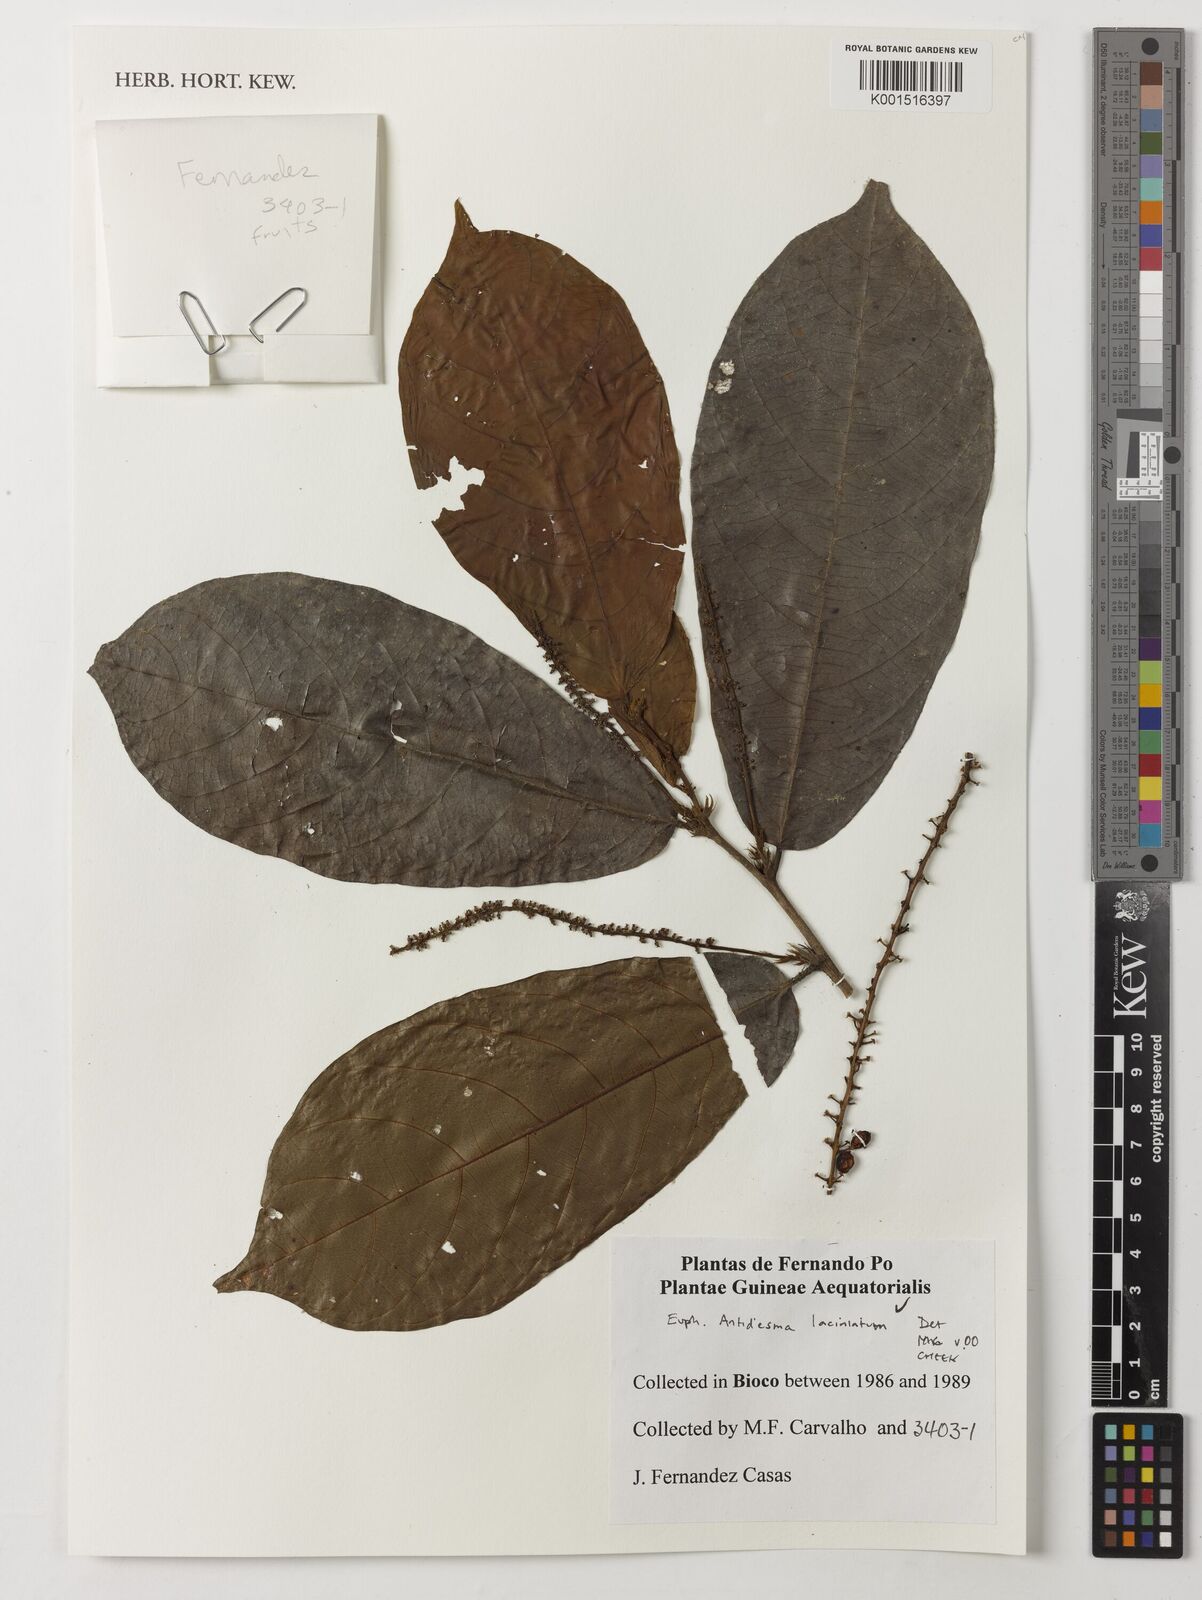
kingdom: Plantae
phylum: Tracheophyta
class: Magnoliopsida
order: Malpighiales
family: Phyllanthaceae
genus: Antidesma
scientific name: Antidesma laciniatum
